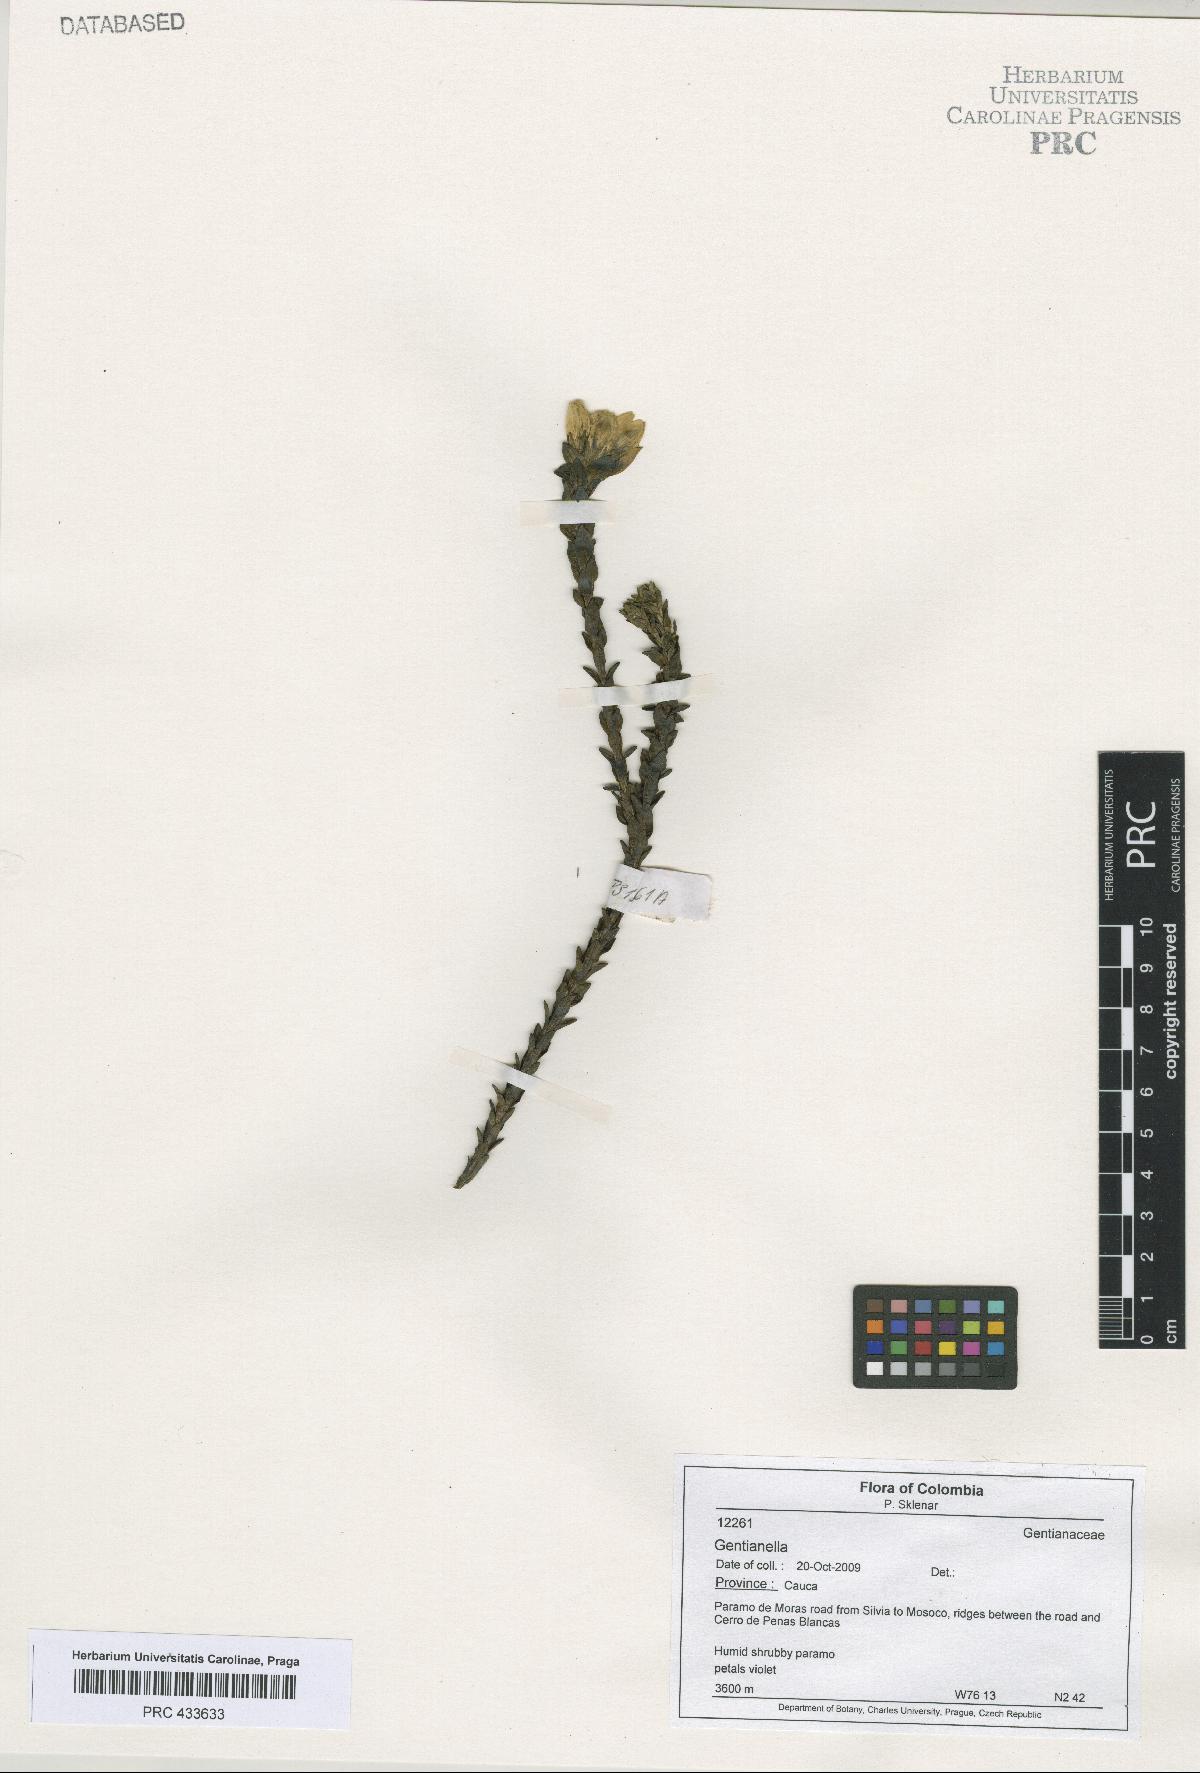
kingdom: Plantae
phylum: Tracheophyta
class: Magnoliopsida
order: Gentianales
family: Gentianaceae
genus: Gentianella
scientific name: Gentianella
